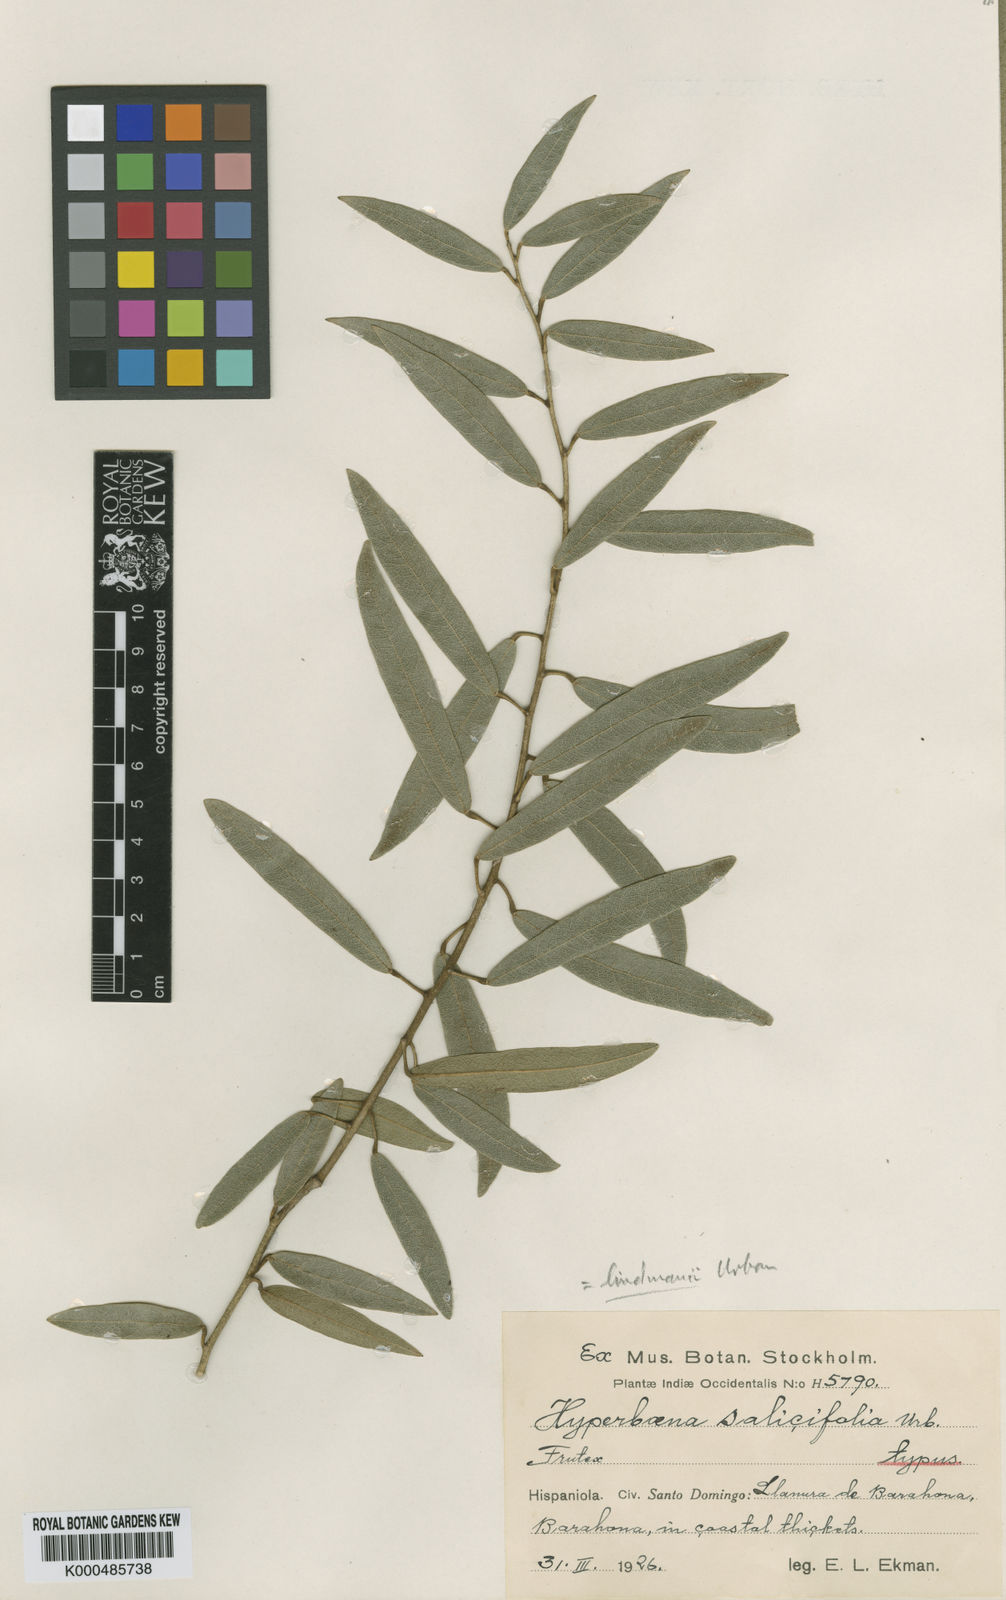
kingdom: Plantae
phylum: Tracheophyta
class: Magnoliopsida
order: Ranunculales
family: Menispermaceae
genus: Hyperbaena
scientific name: Hyperbaena lindmanii
